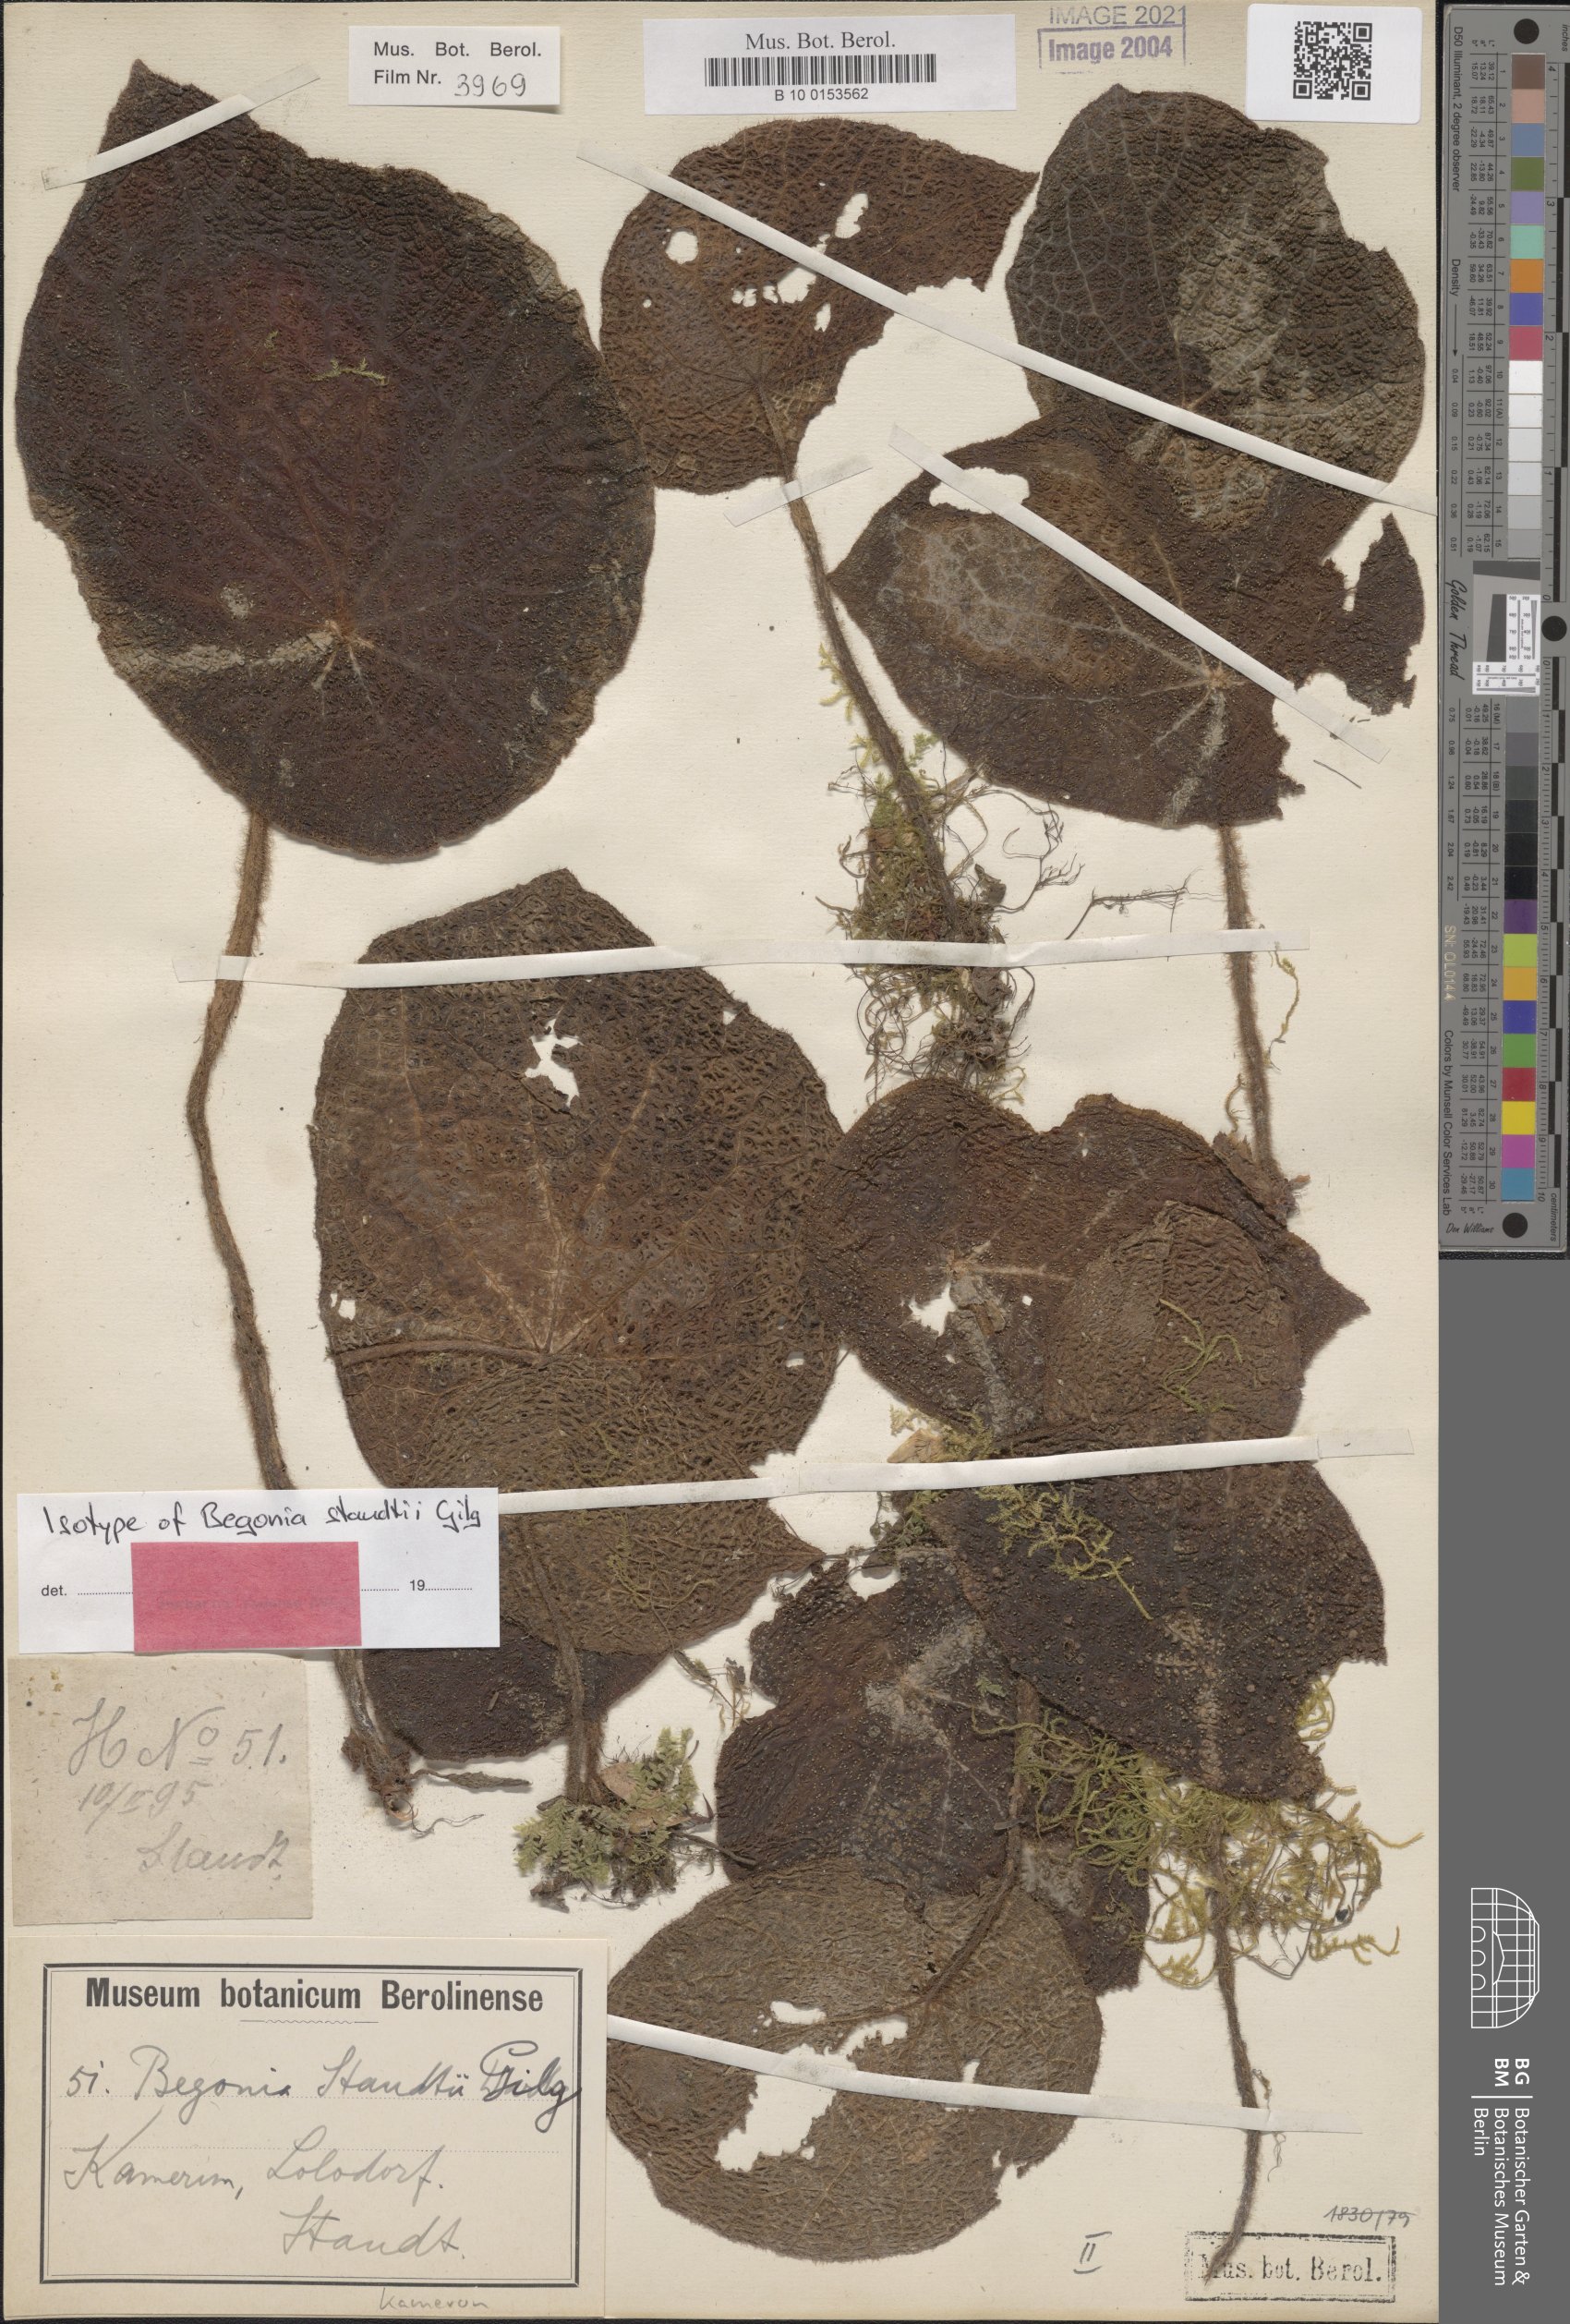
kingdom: Plantae
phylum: Tracheophyta
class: Magnoliopsida
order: Cucurbitales
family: Begoniaceae
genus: Begonia
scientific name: Begonia staudtii
